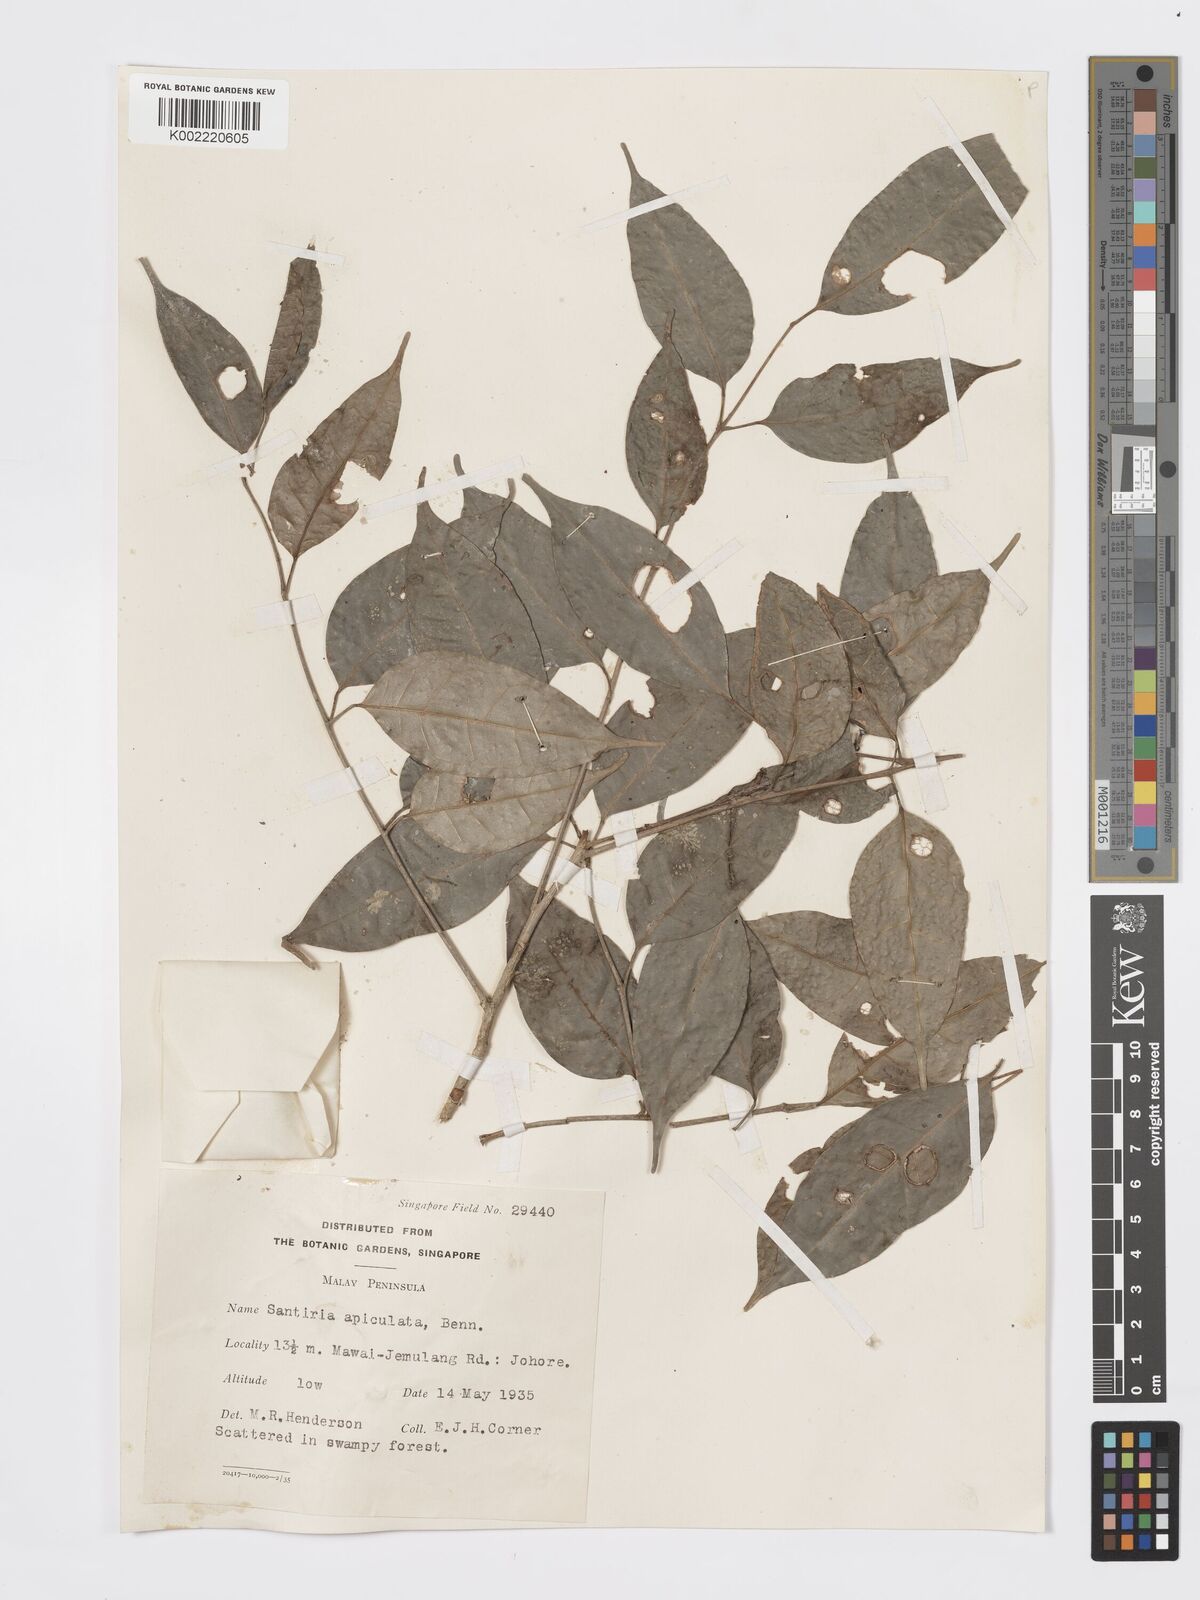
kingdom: Plantae
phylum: Tracheophyta
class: Magnoliopsida
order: Sapindales
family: Burseraceae
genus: Santiria
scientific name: Santiria apiculata
